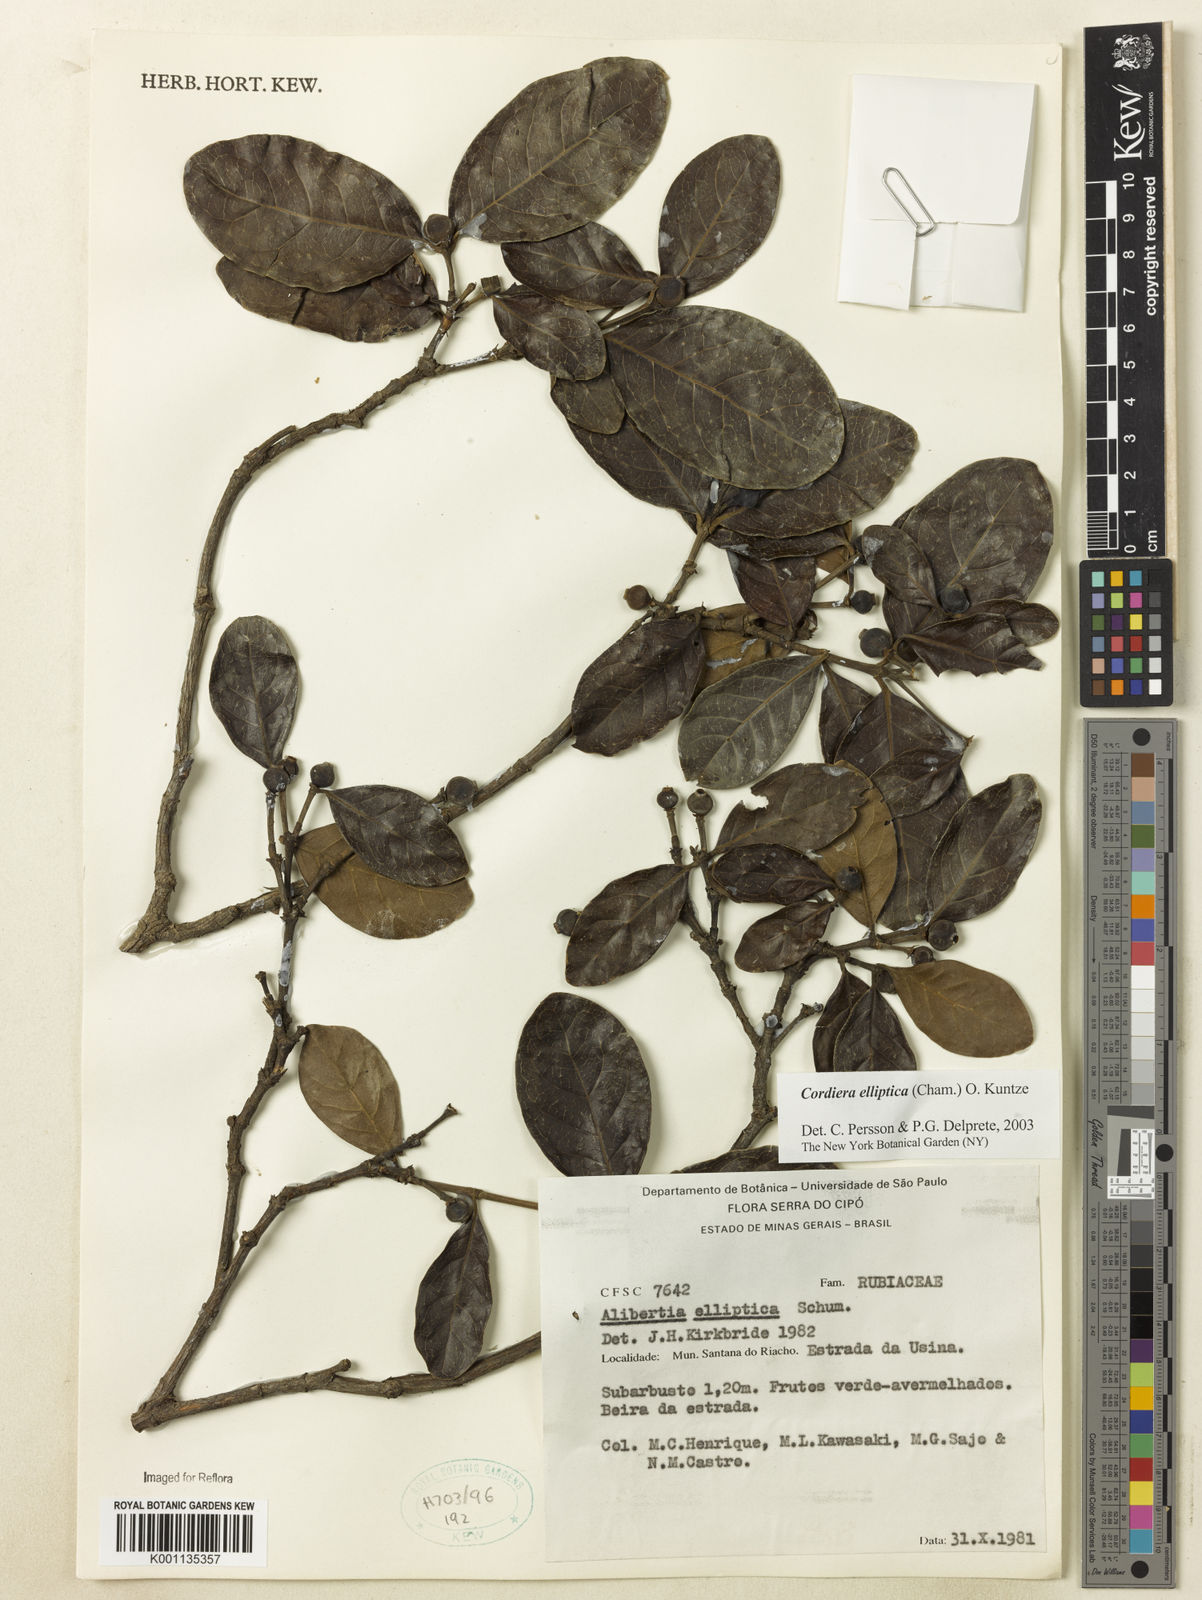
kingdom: Plantae
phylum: Tracheophyta
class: Magnoliopsida
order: Gentianales
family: Rubiaceae
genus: Cordiera
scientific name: Cordiera elliptica
